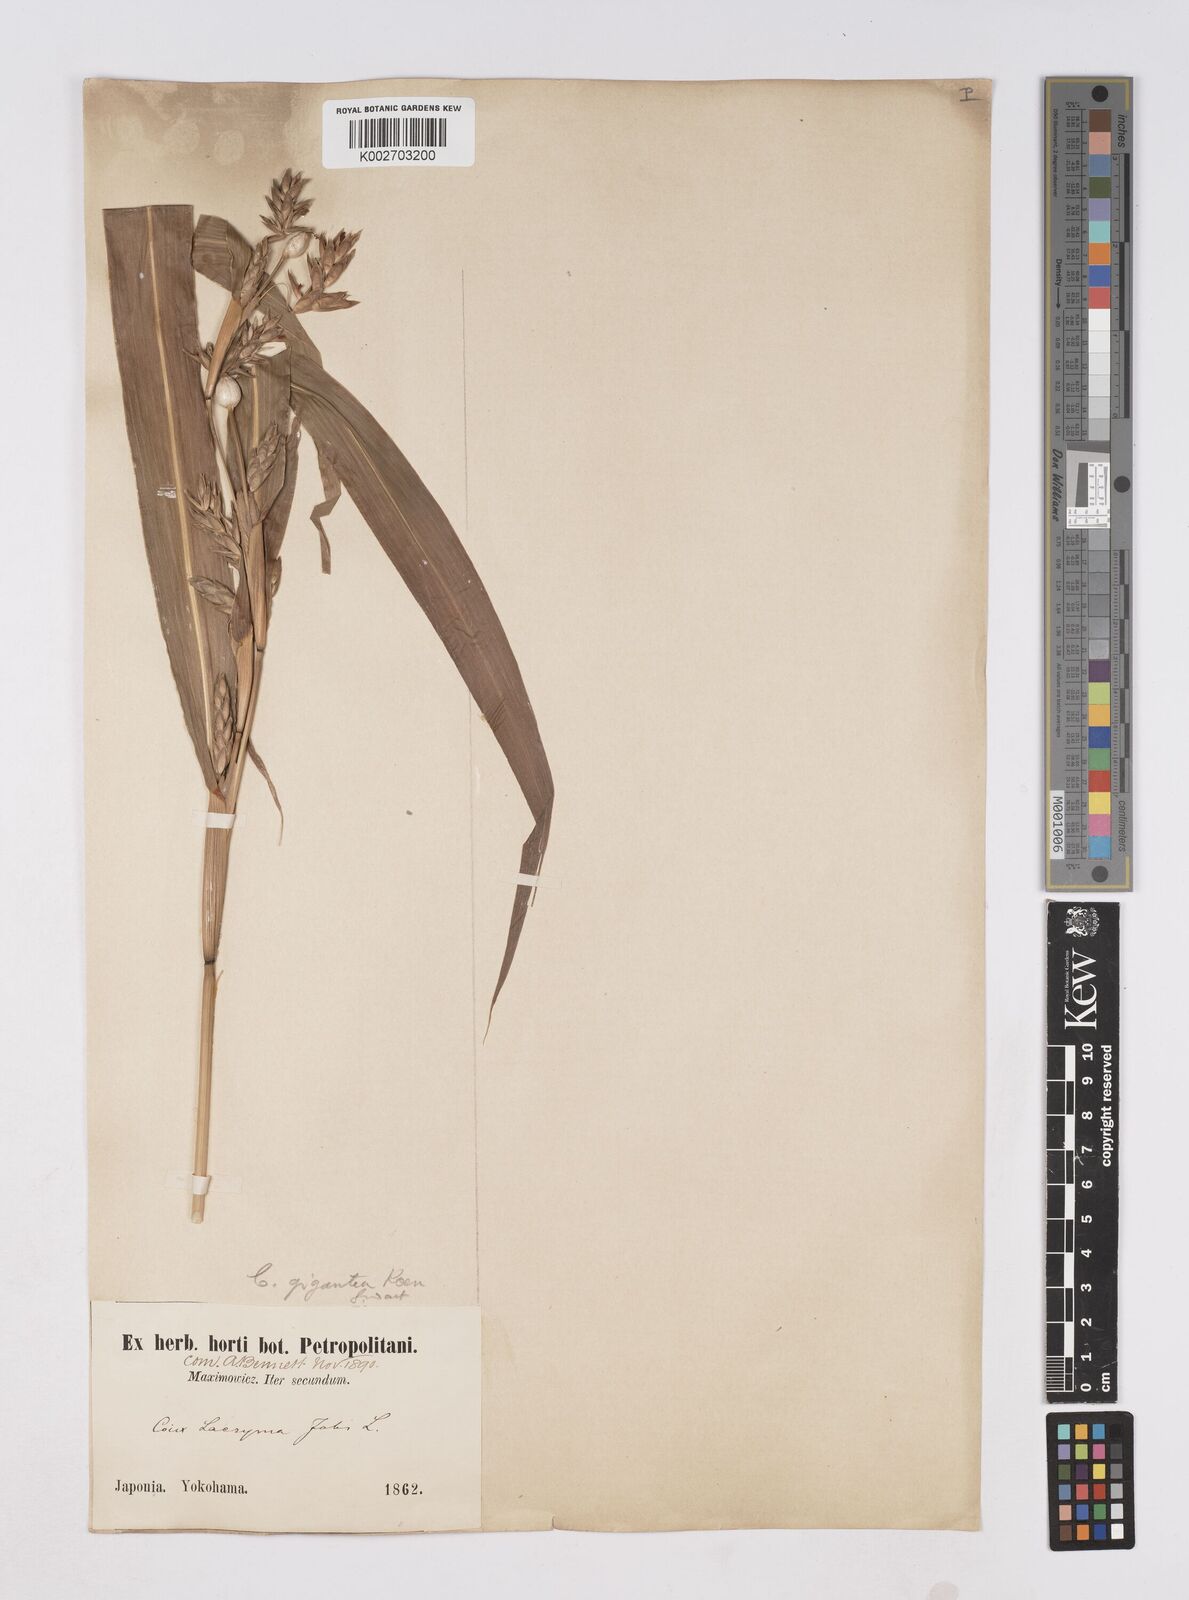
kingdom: Plantae
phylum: Tracheophyta
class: Liliopsida
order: Poales
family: Poaceae
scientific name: Poaceae
